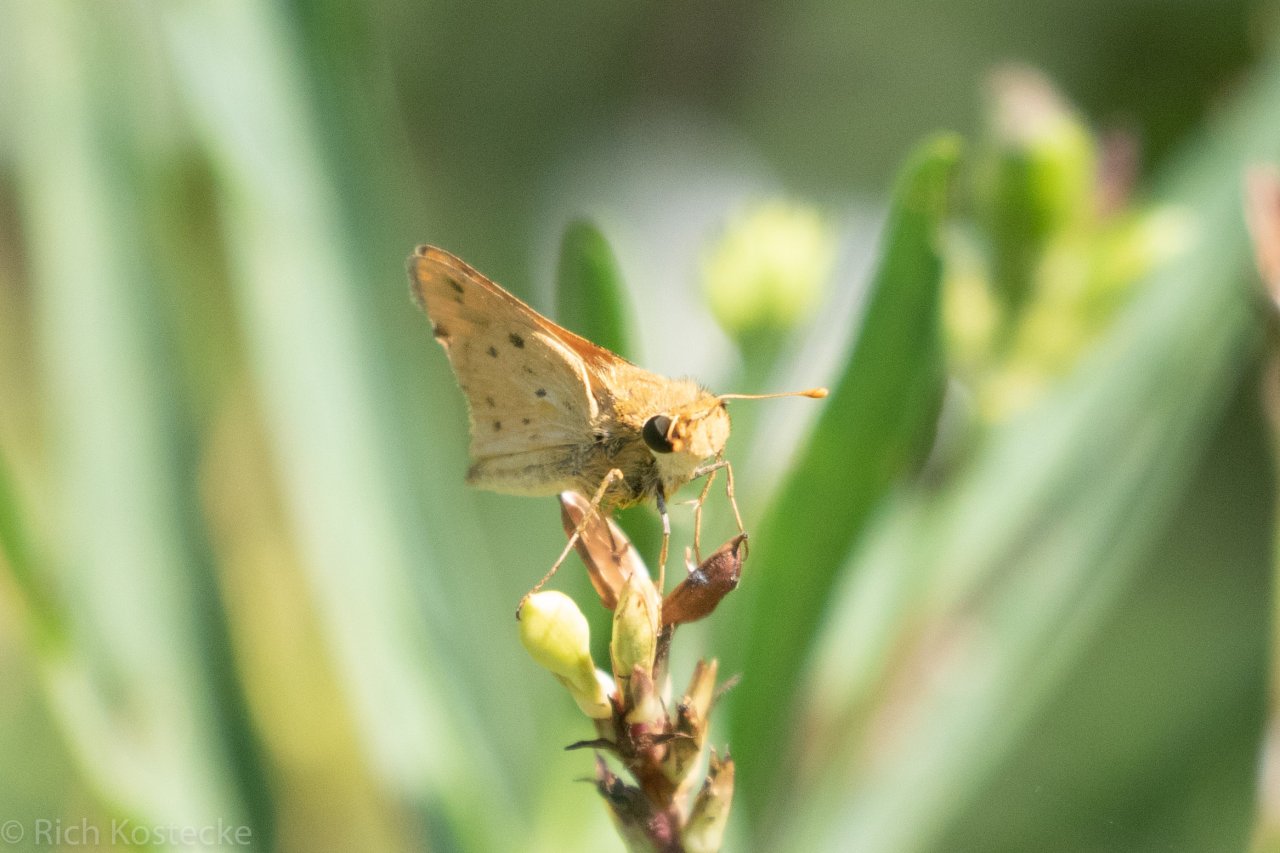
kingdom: Animalia
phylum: Arthropoda
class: Insecta
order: Lepidoptera
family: Hesperiidae
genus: Hylephila
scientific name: Hylephila phyleus
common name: Fiery Skipper
